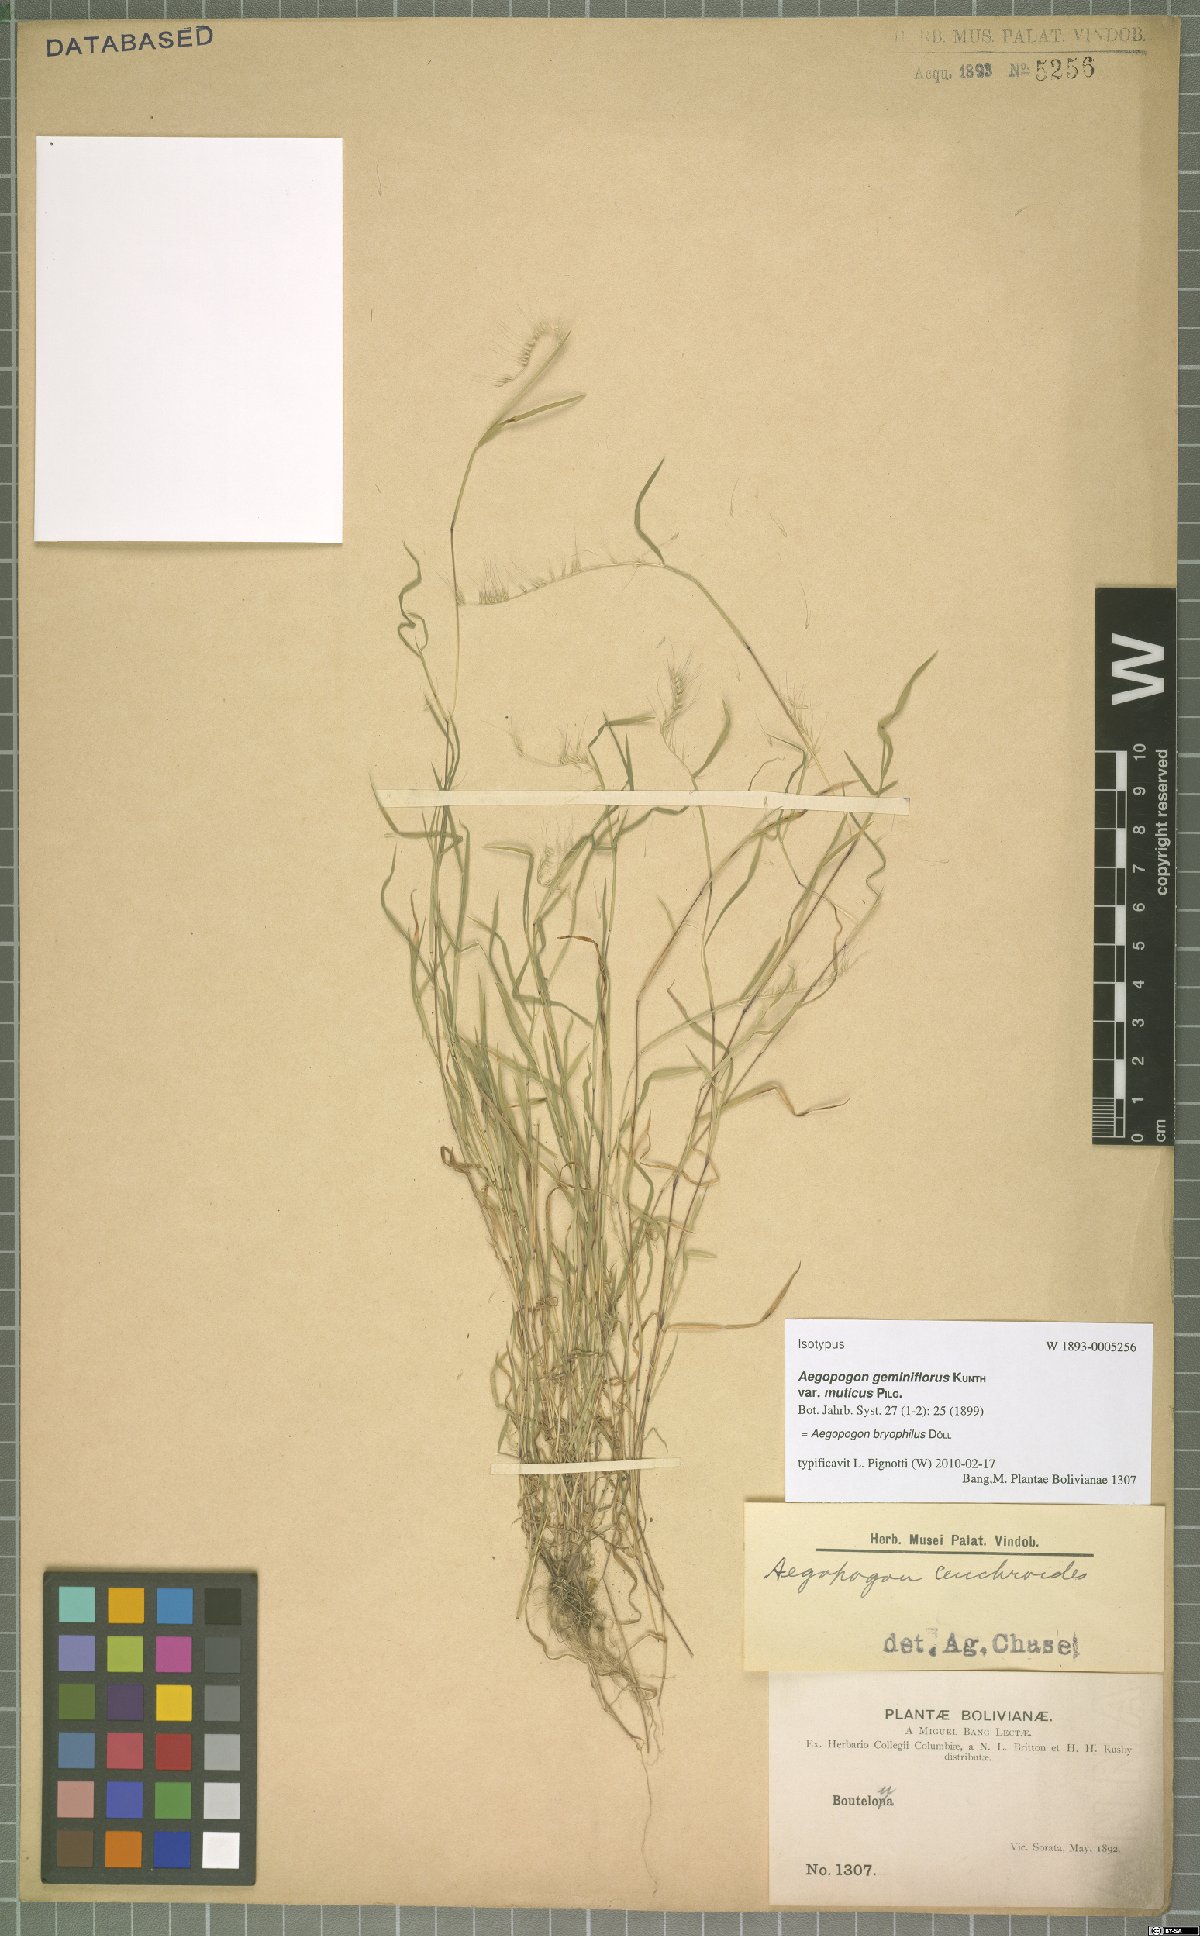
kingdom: Plantae
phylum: Tracheophyta
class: Liliopsida
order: Poales
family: Poaceae
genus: Muhlenbergia
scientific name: Muhlenbergia bryophilus
